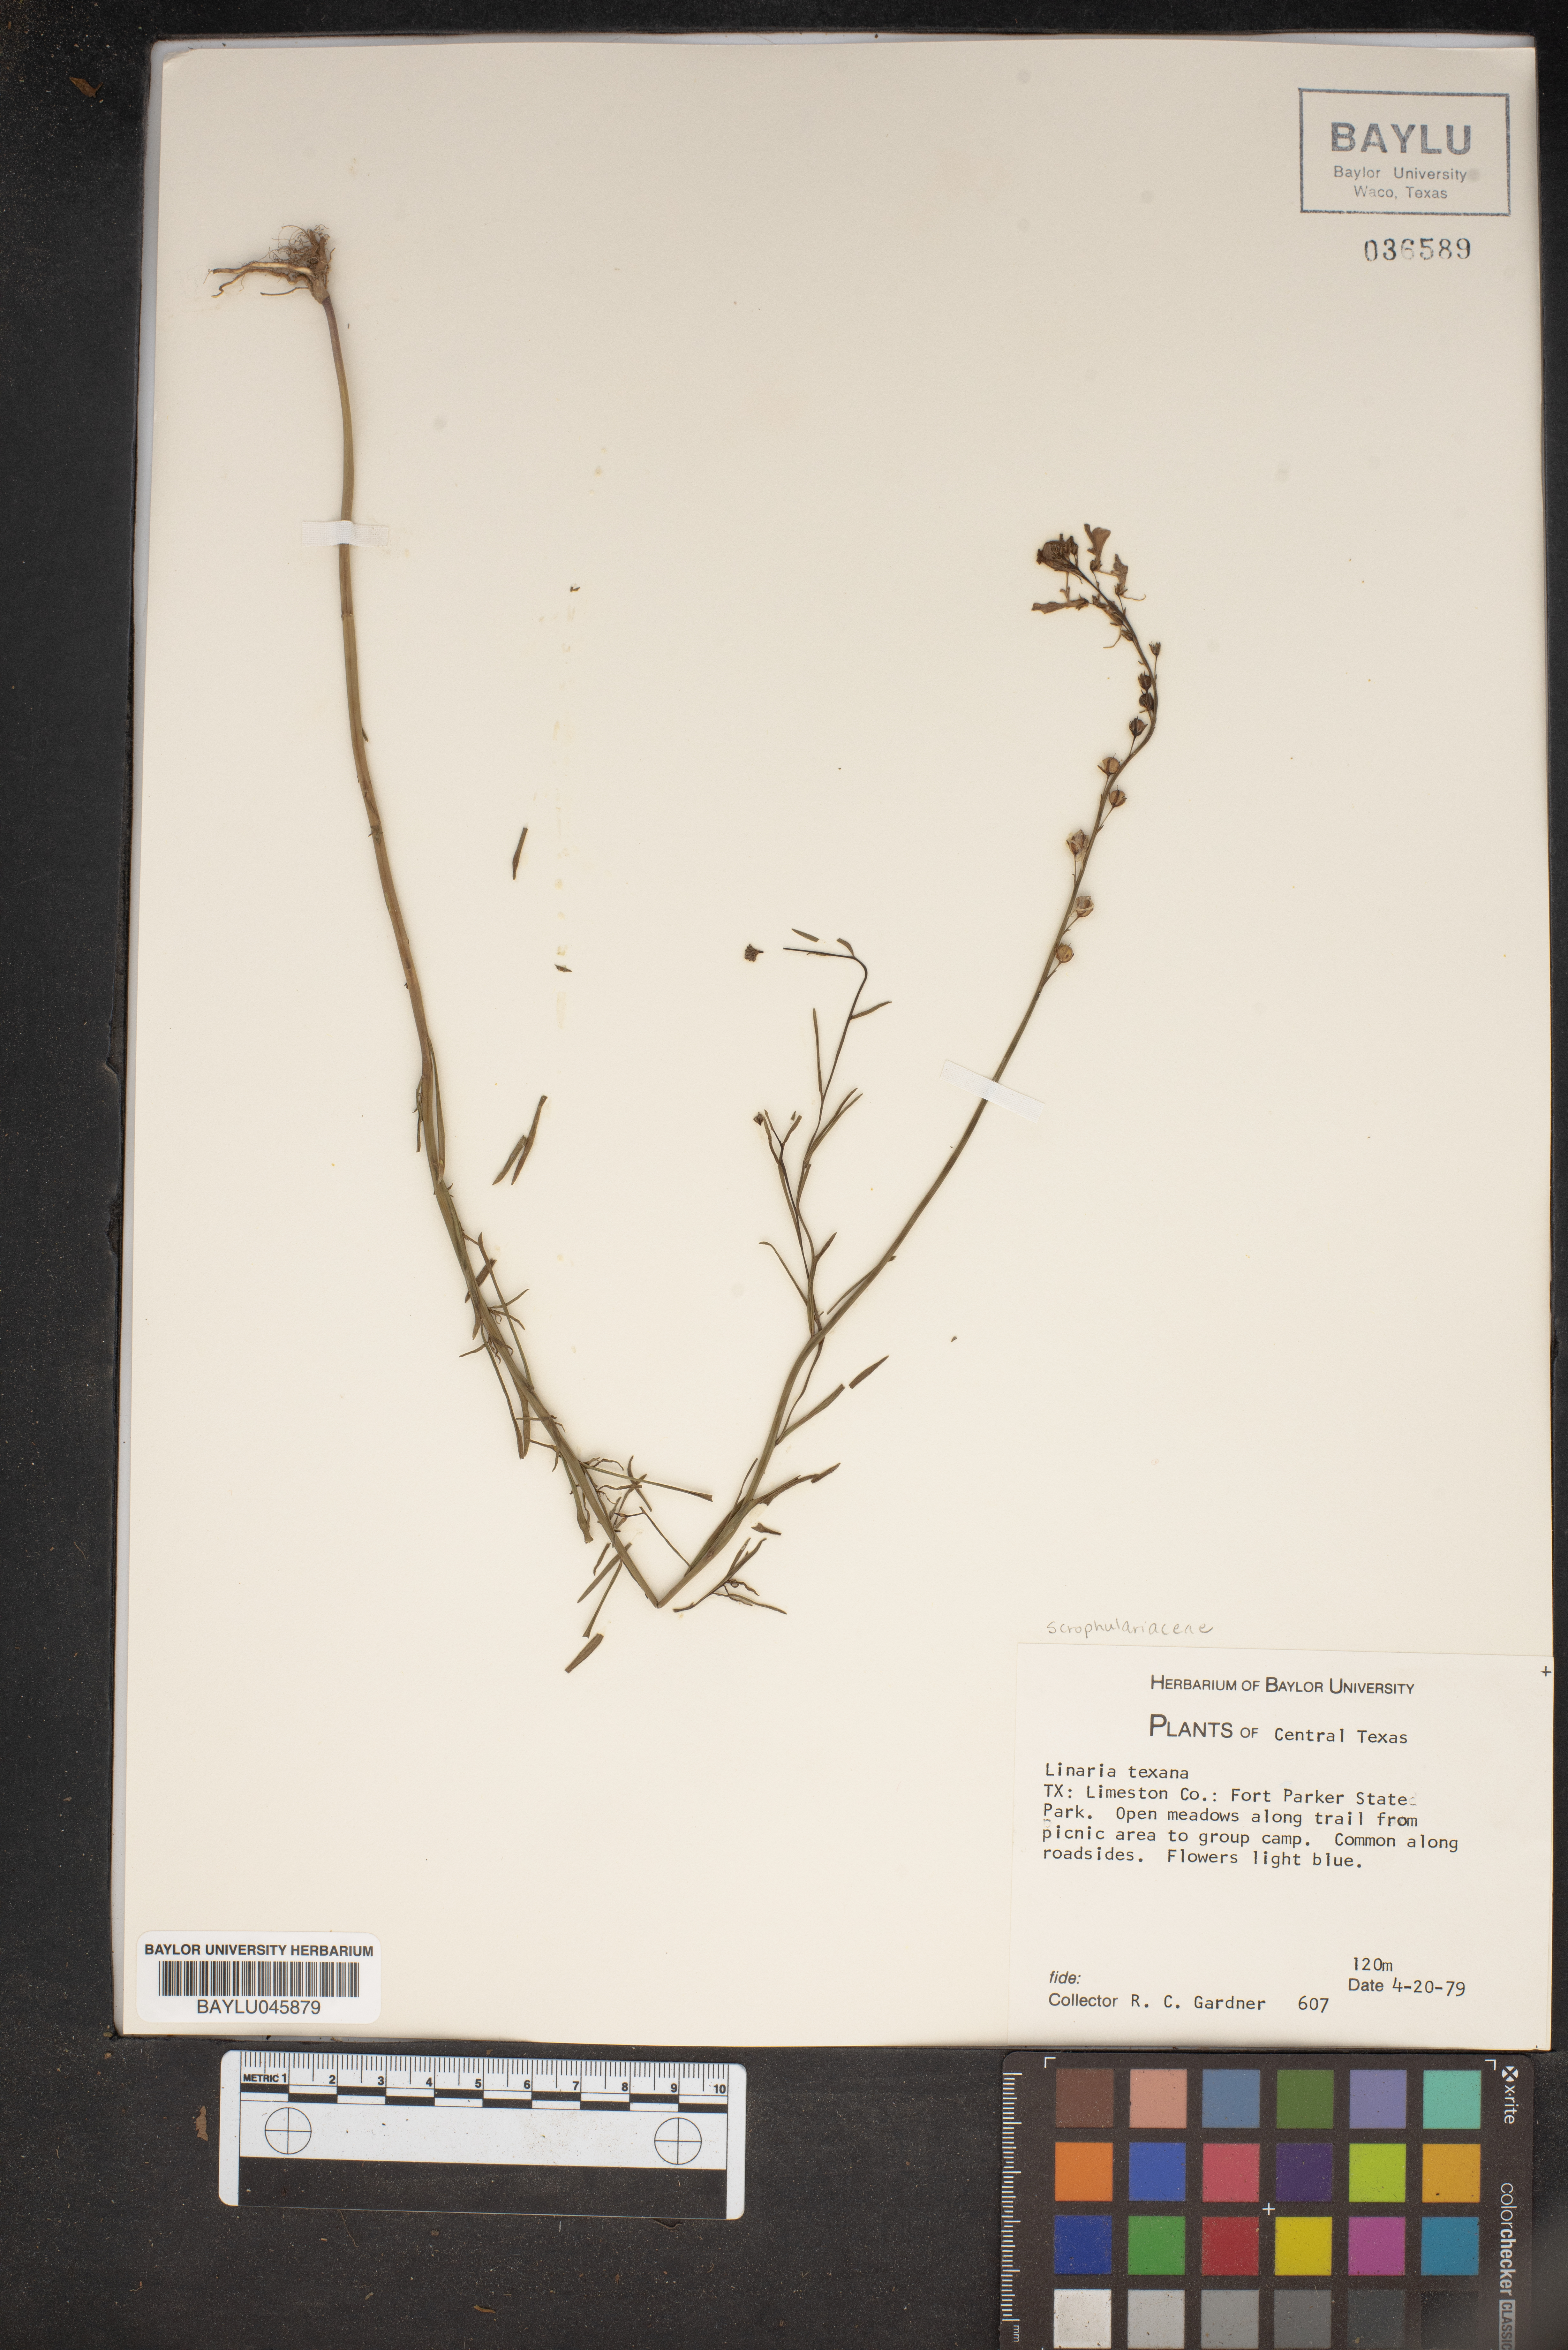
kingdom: Plantae
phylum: Tracheophyta
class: Magnoliopsida
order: Lamiales
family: Plantaginaceae
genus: Nuttallanthus
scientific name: Nuttallanthus texanus
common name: Texas toadflax
